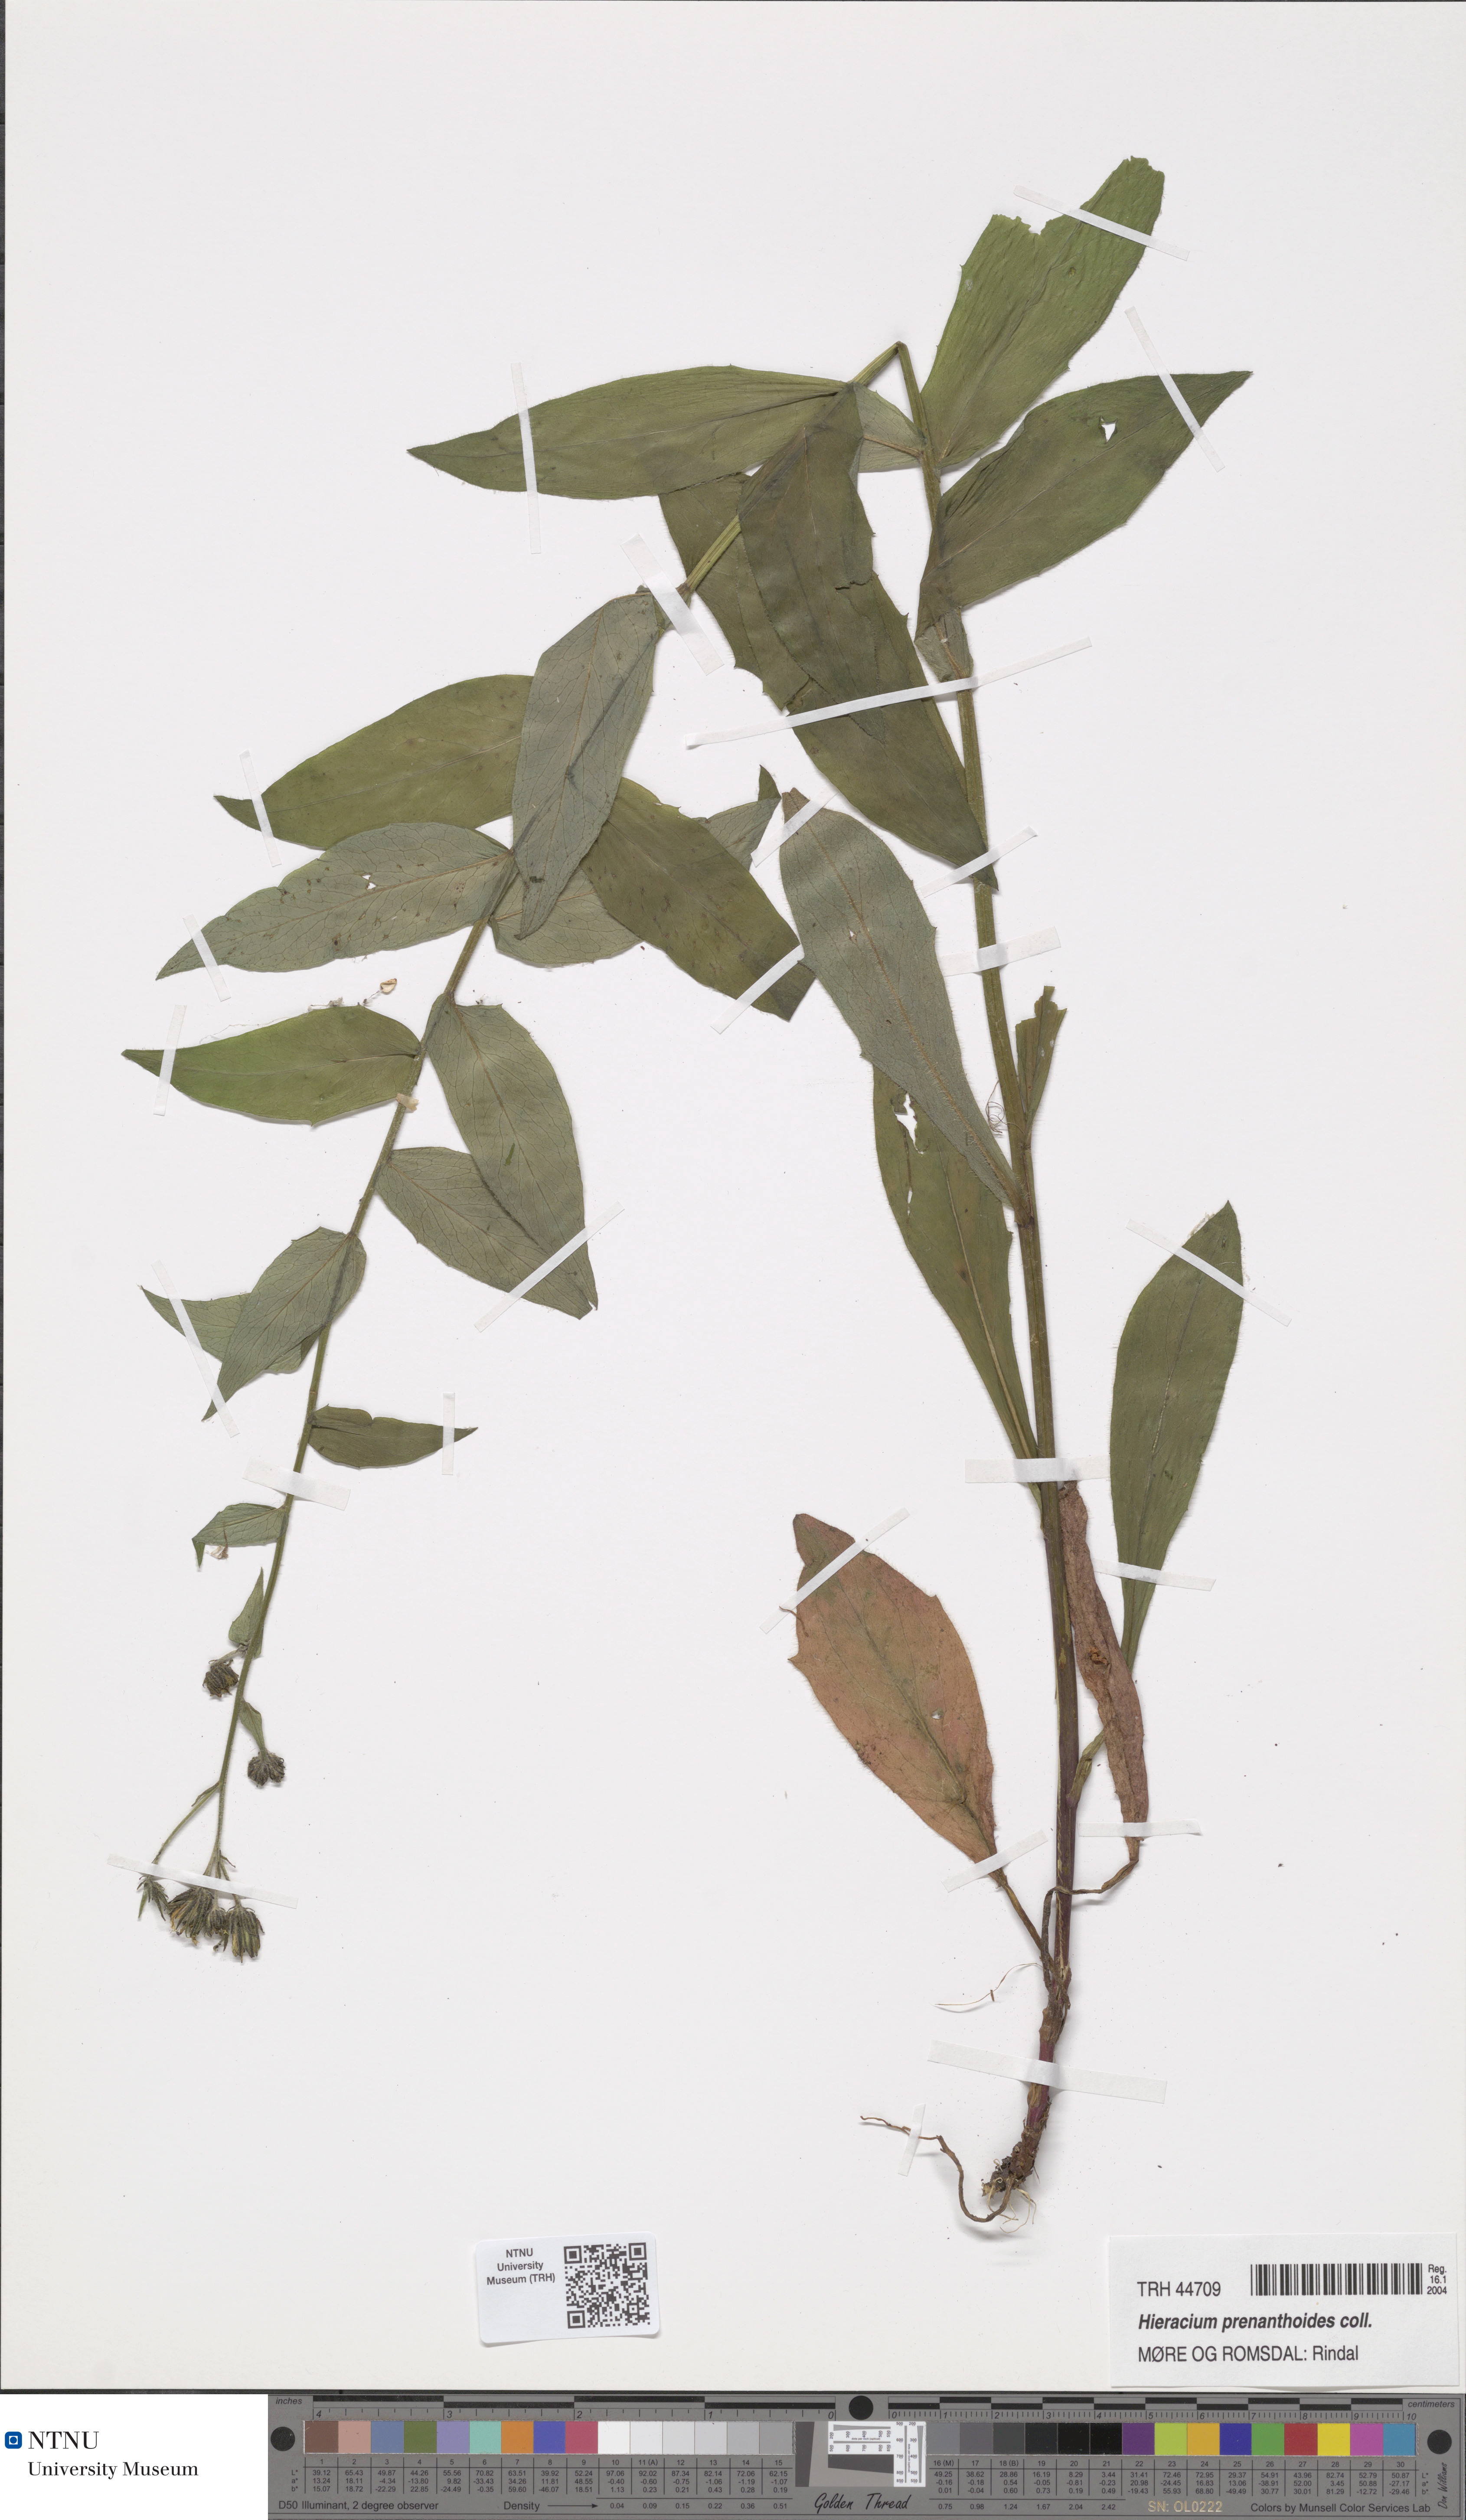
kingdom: Plantae
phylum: Tracheophyta
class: Magnoliopsida
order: Asterales
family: Asteraceae
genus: Hieracium
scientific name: Hieracium prenanthoides
